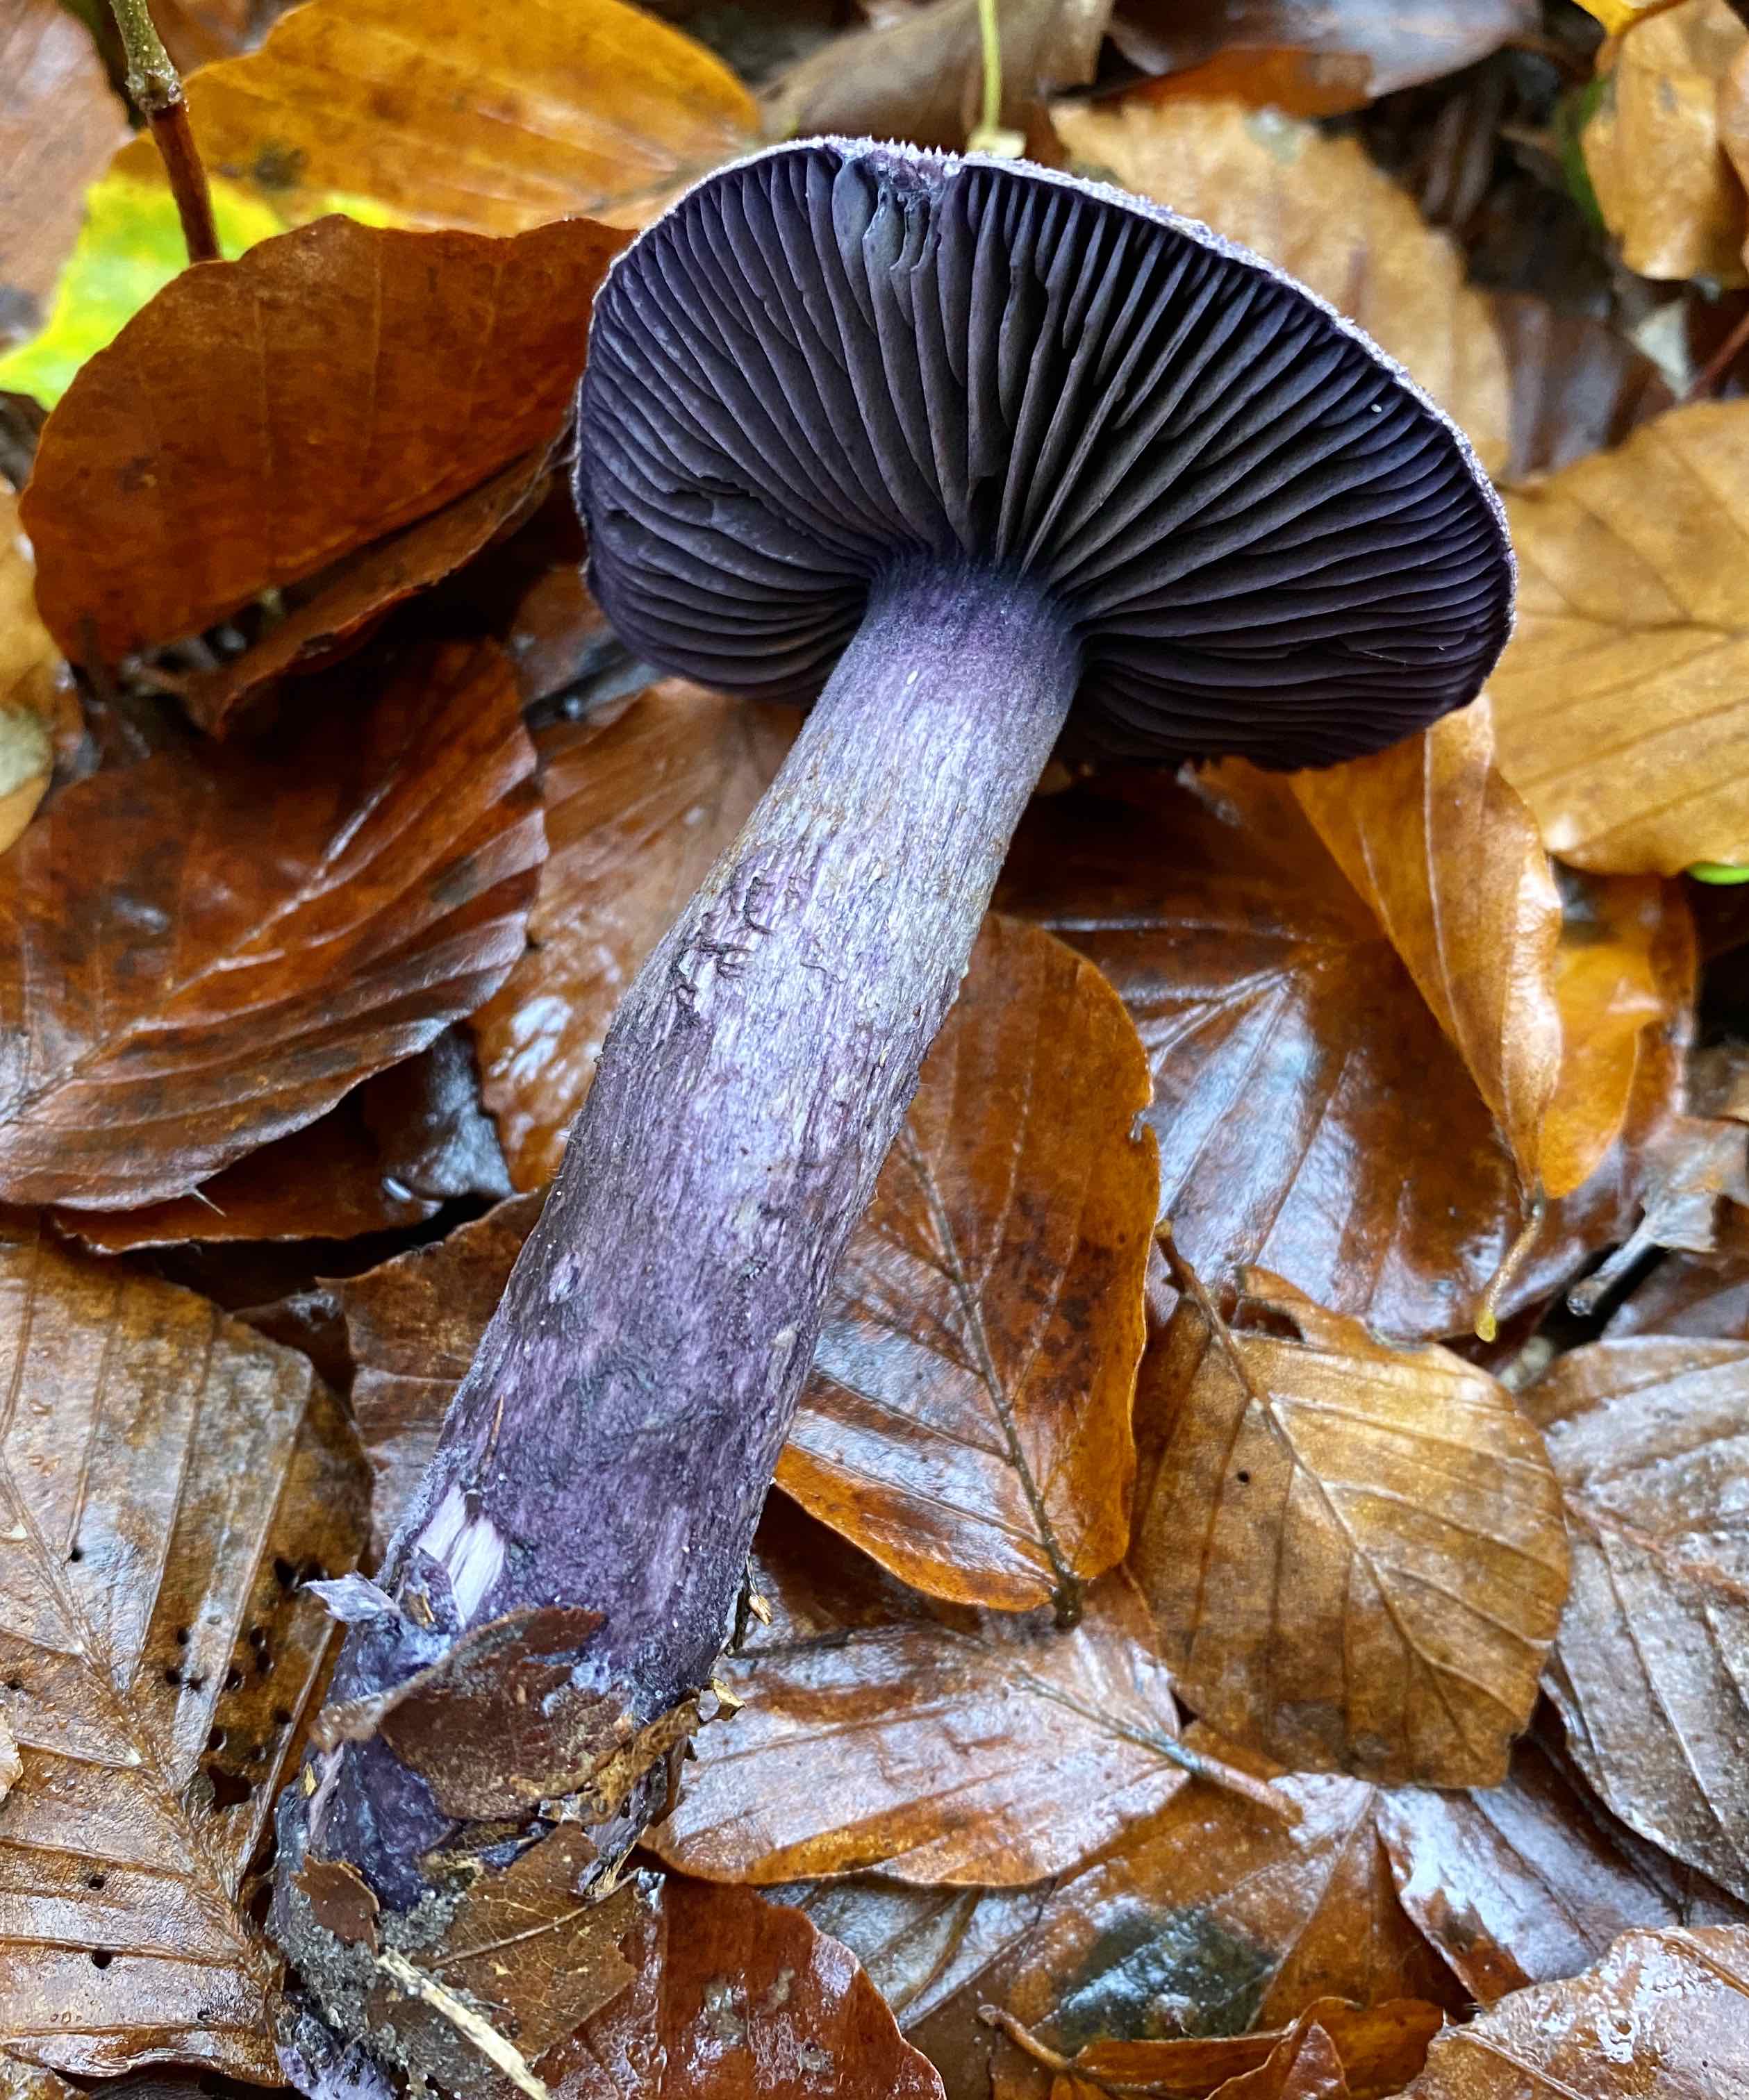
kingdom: Fungi
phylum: Basidiomycota
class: Agaricomycetes
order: Agaricales
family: Cortinariaceae
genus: Cortinarius
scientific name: Cortinarius violaceus
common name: mørkviolet slørhat
